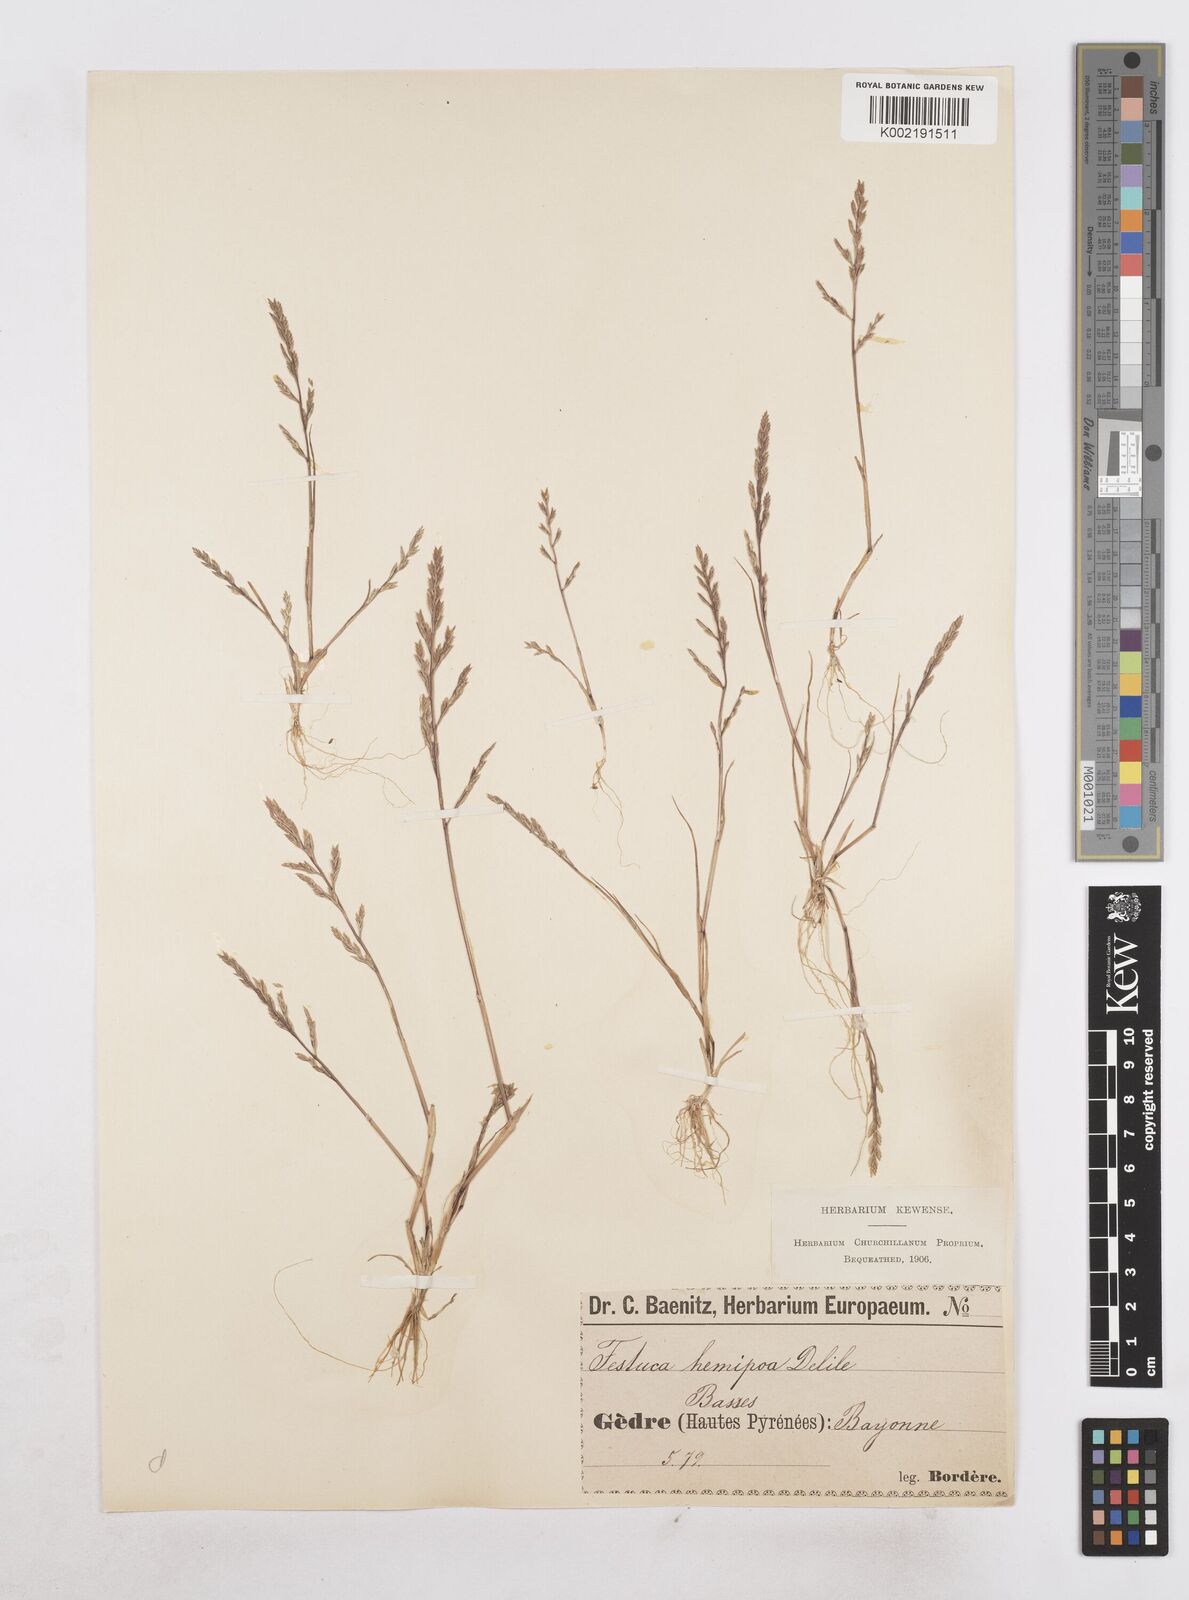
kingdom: Plantae
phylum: Tracheophyta
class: Liliopsida
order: Poales
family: Poaceae
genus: Catapodium
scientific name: Catapodium hemipoa
